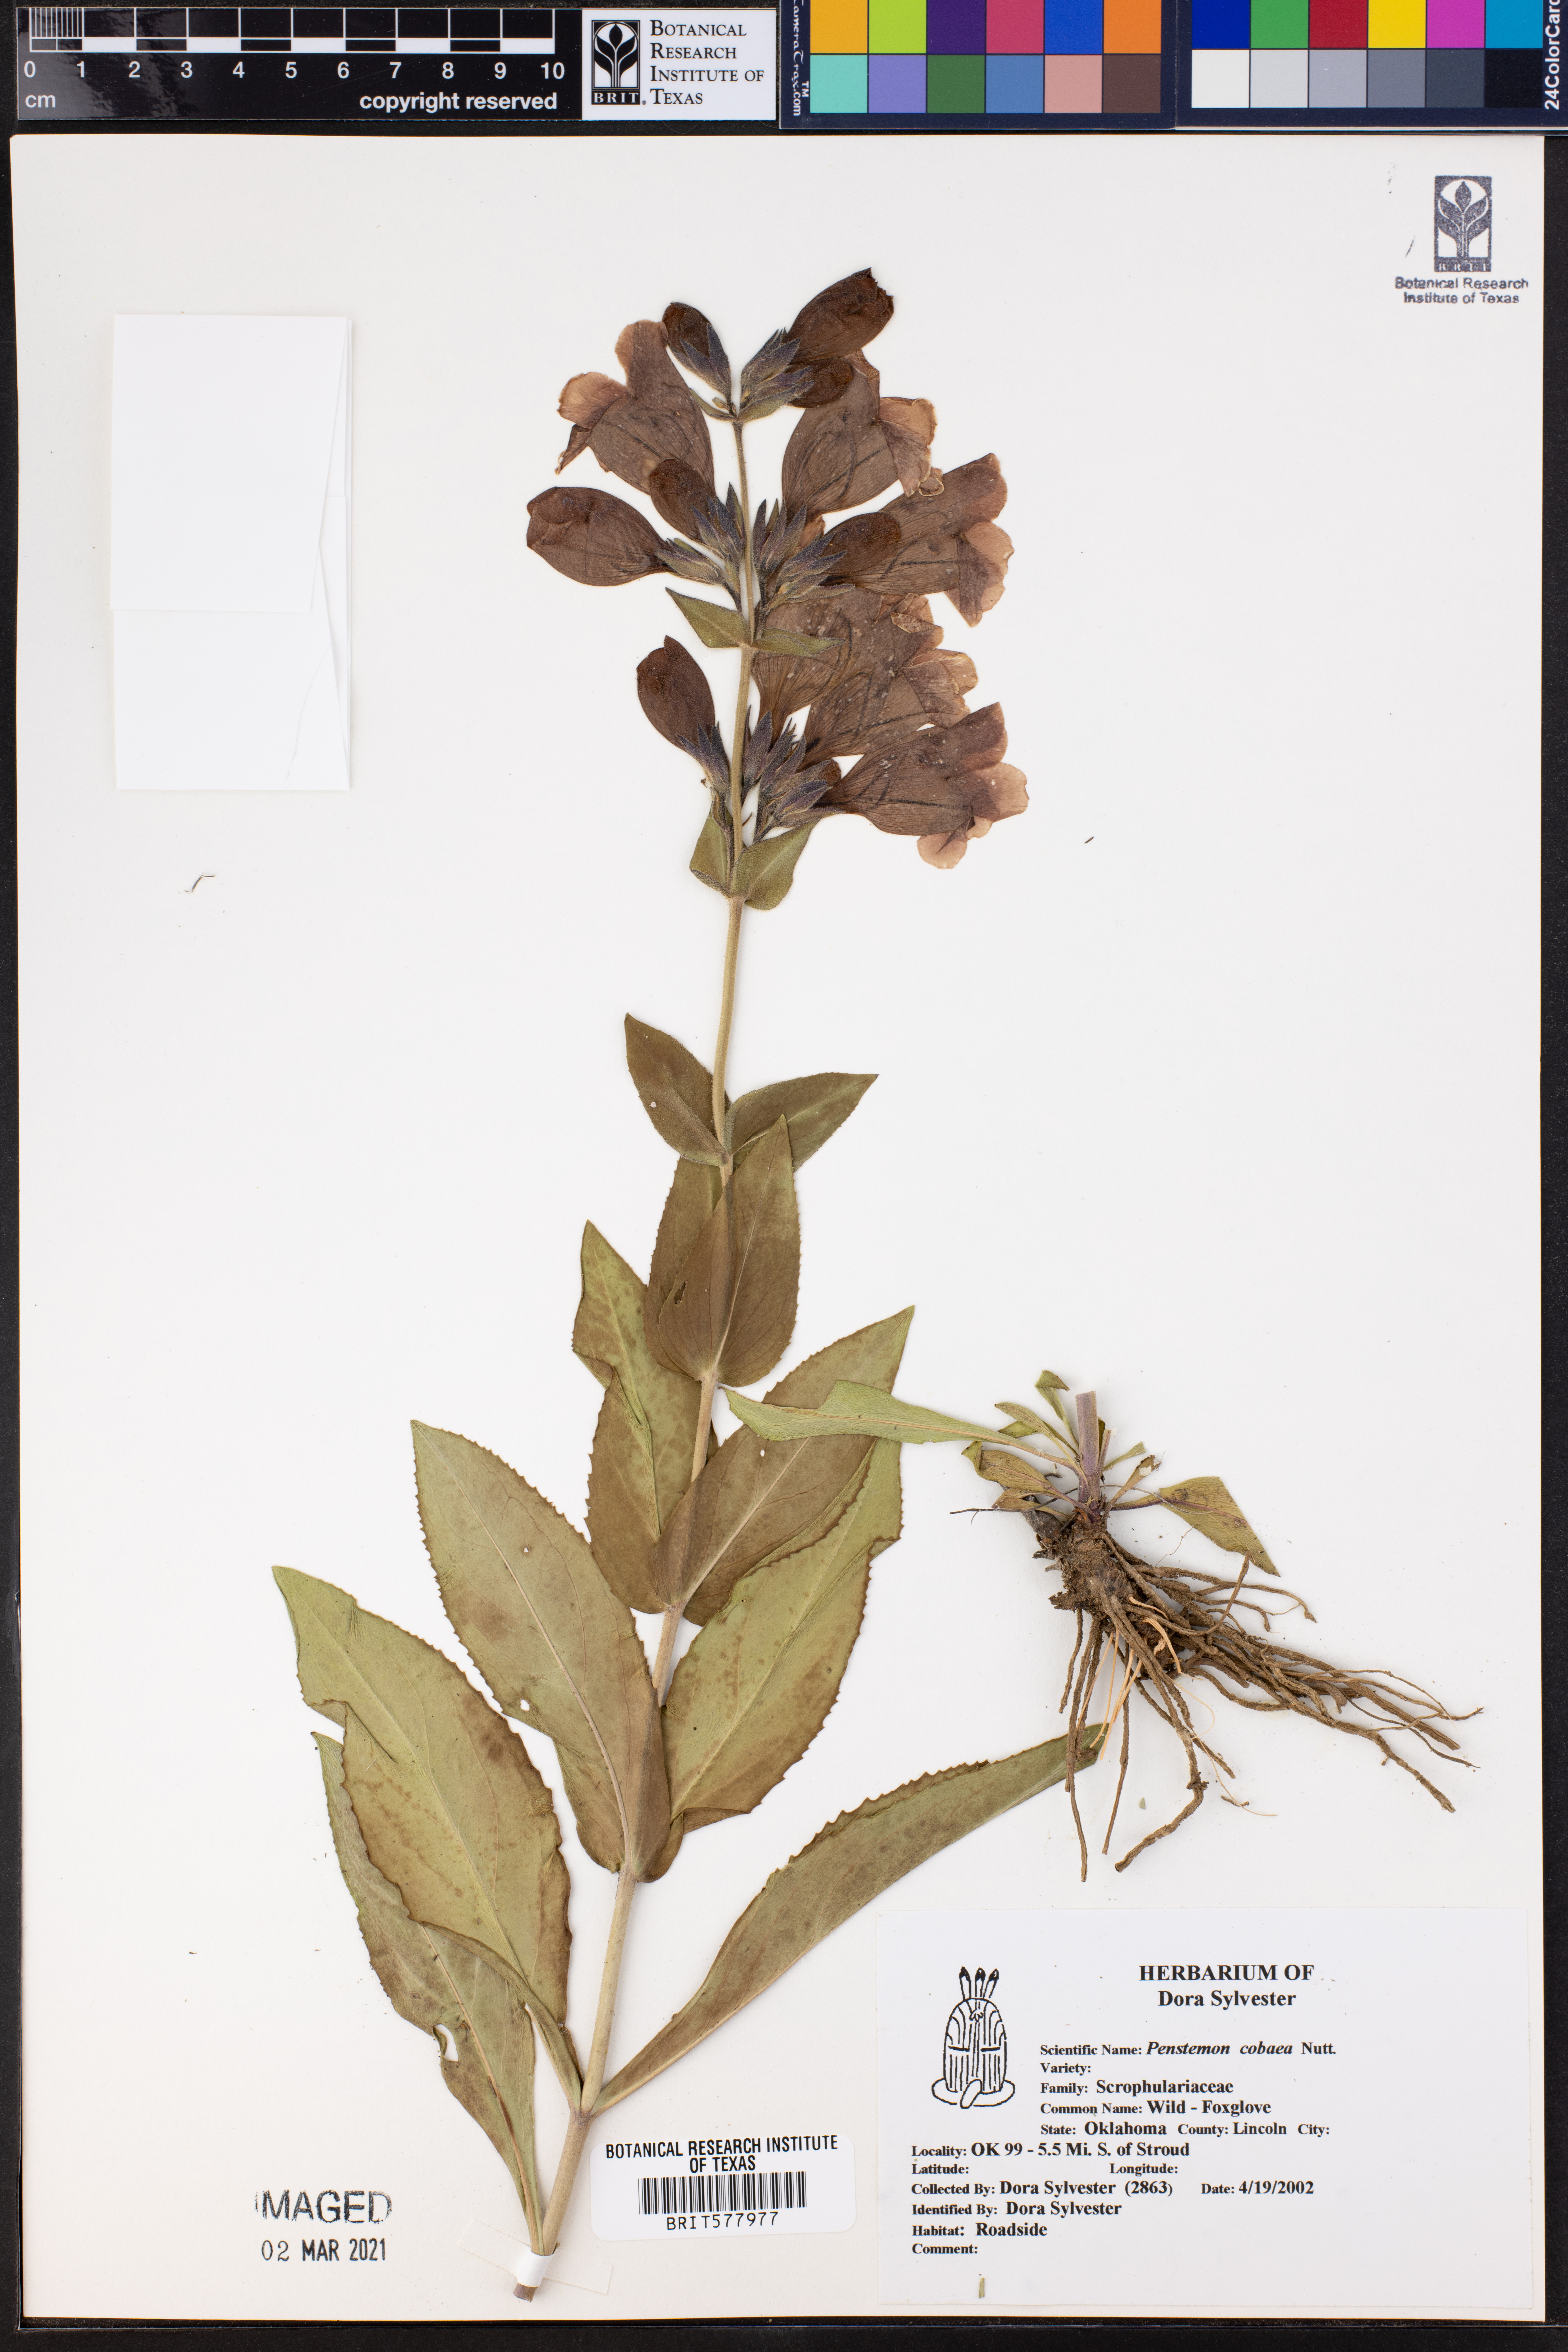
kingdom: Plantae
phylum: Tracheophyta
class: Magnoliopsida
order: Lamiales
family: Plantaginaceae
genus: Penstemon
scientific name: Penstemon cobaea
